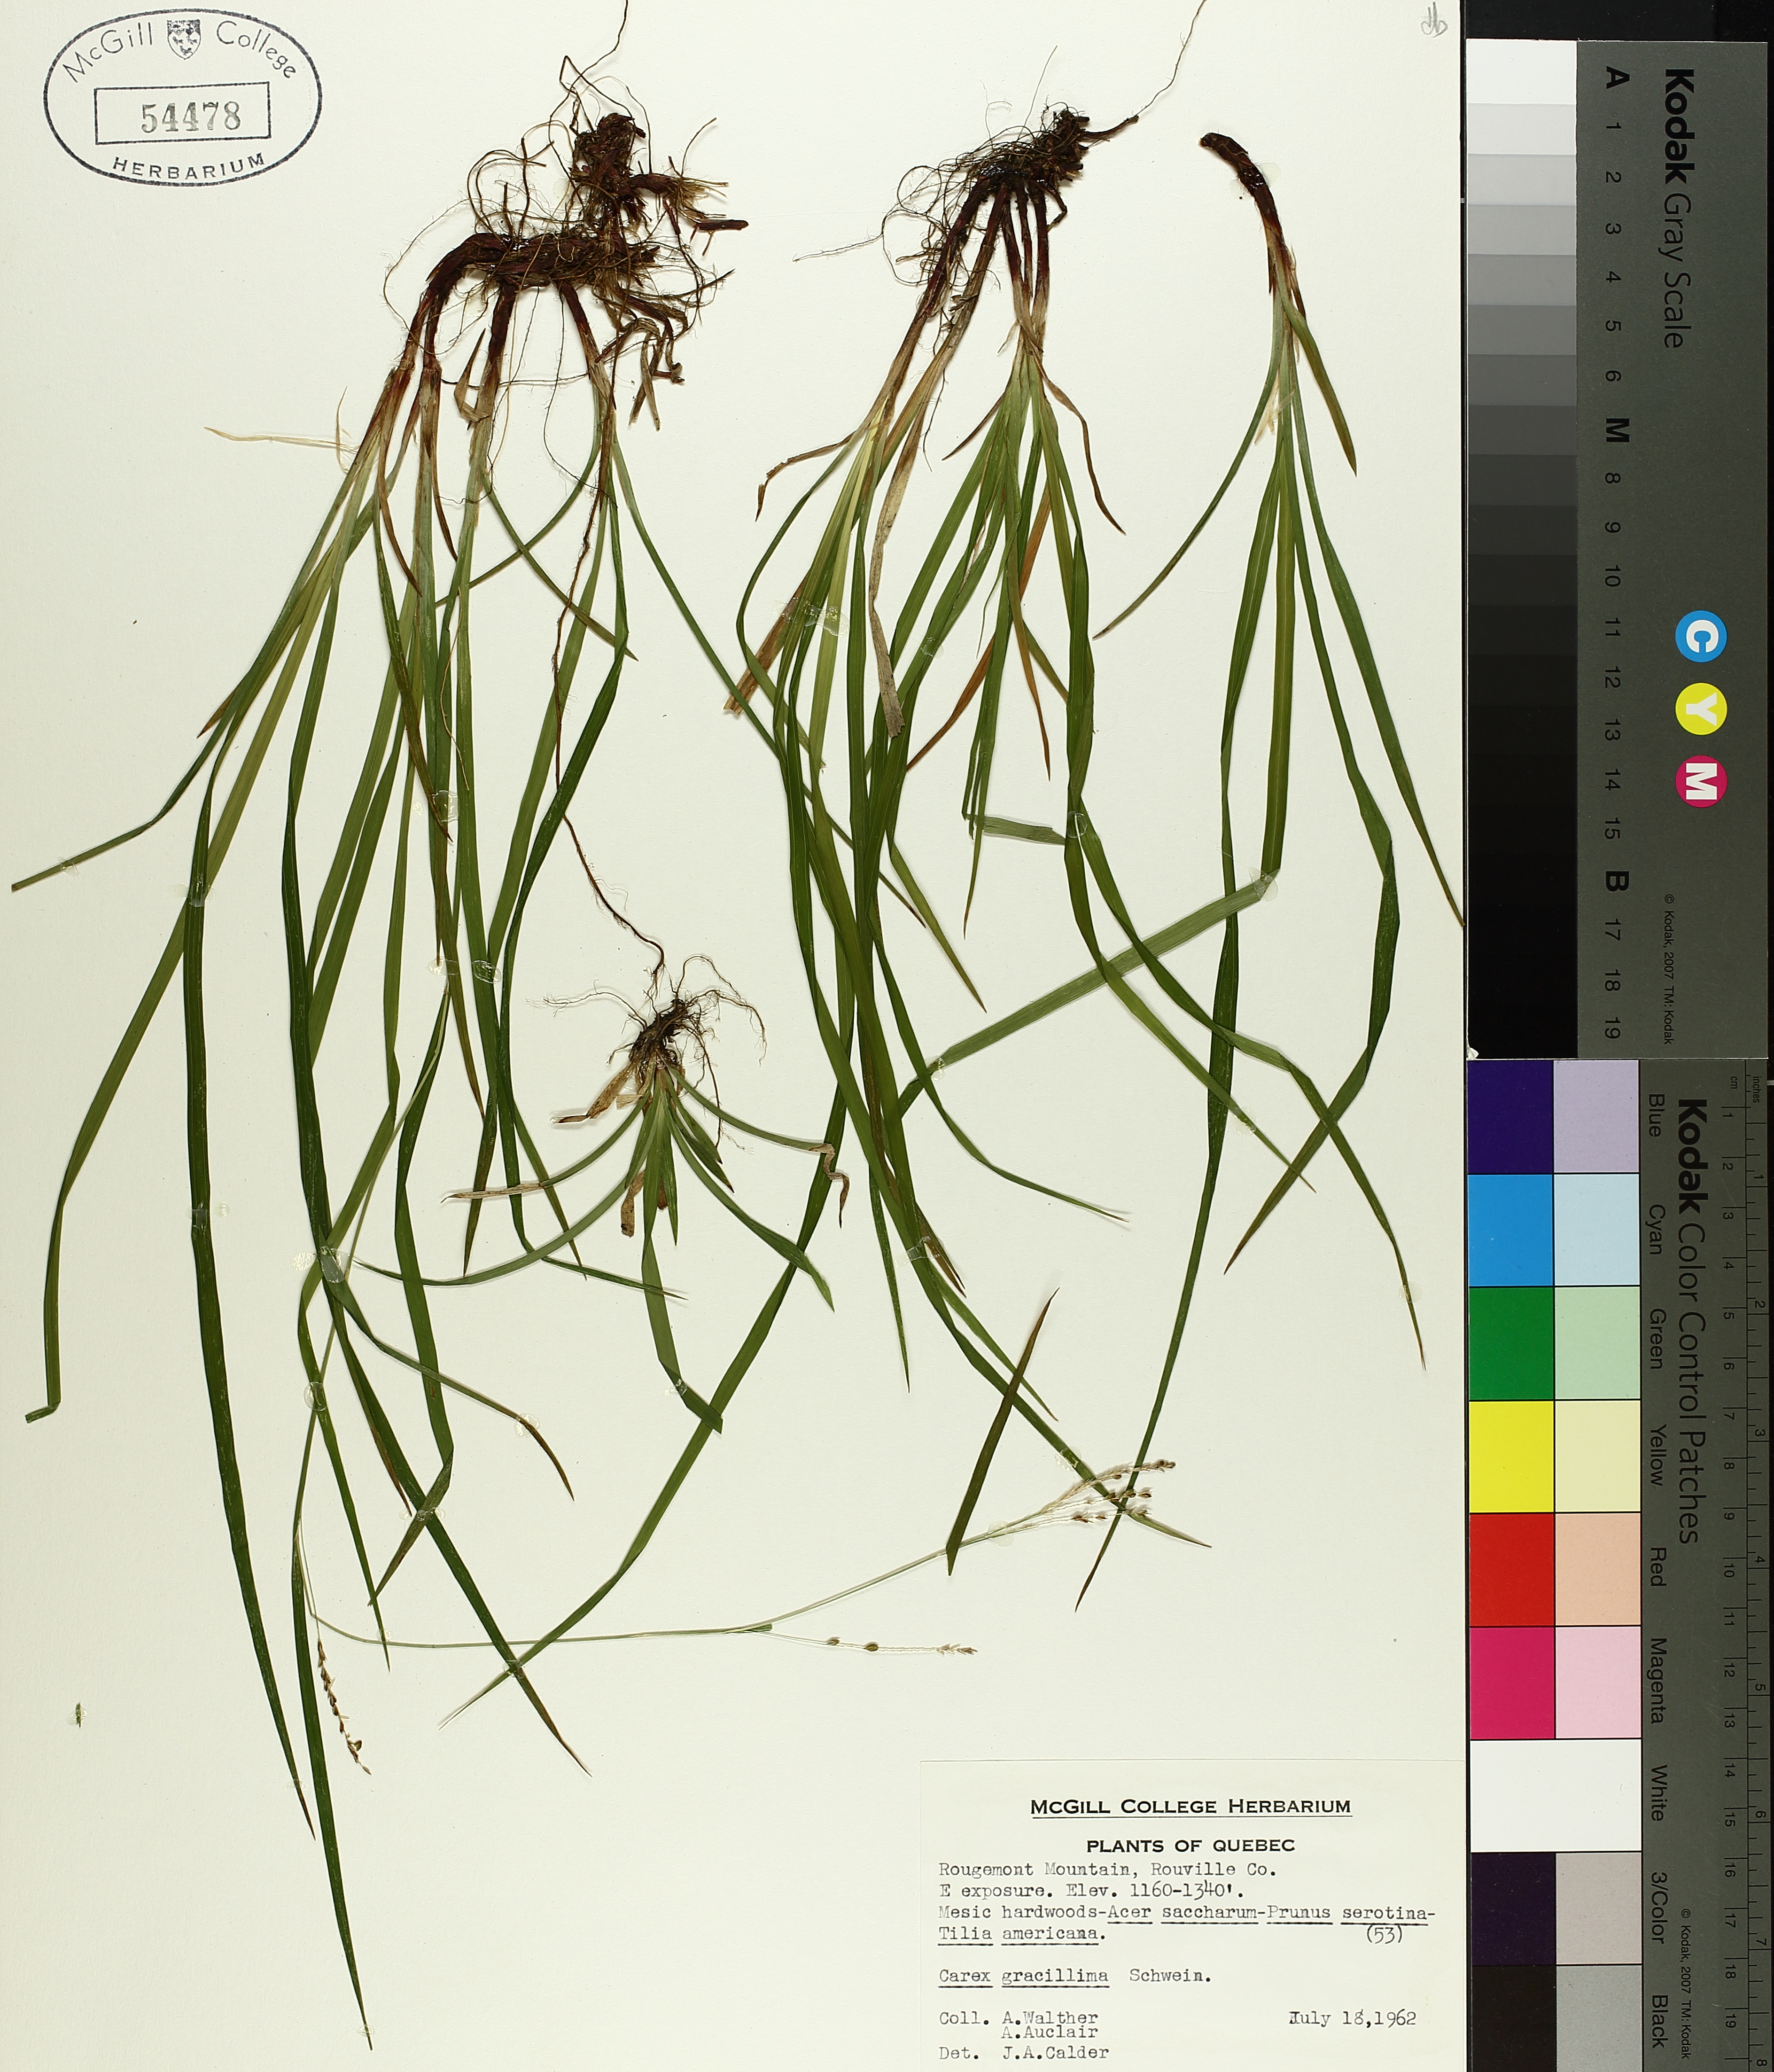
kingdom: Plantae
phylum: Tracheophyta
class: Liliopsida
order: Poales
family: Cyperaceae
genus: Carex
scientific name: Carex gracillima
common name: Graceful sedge
